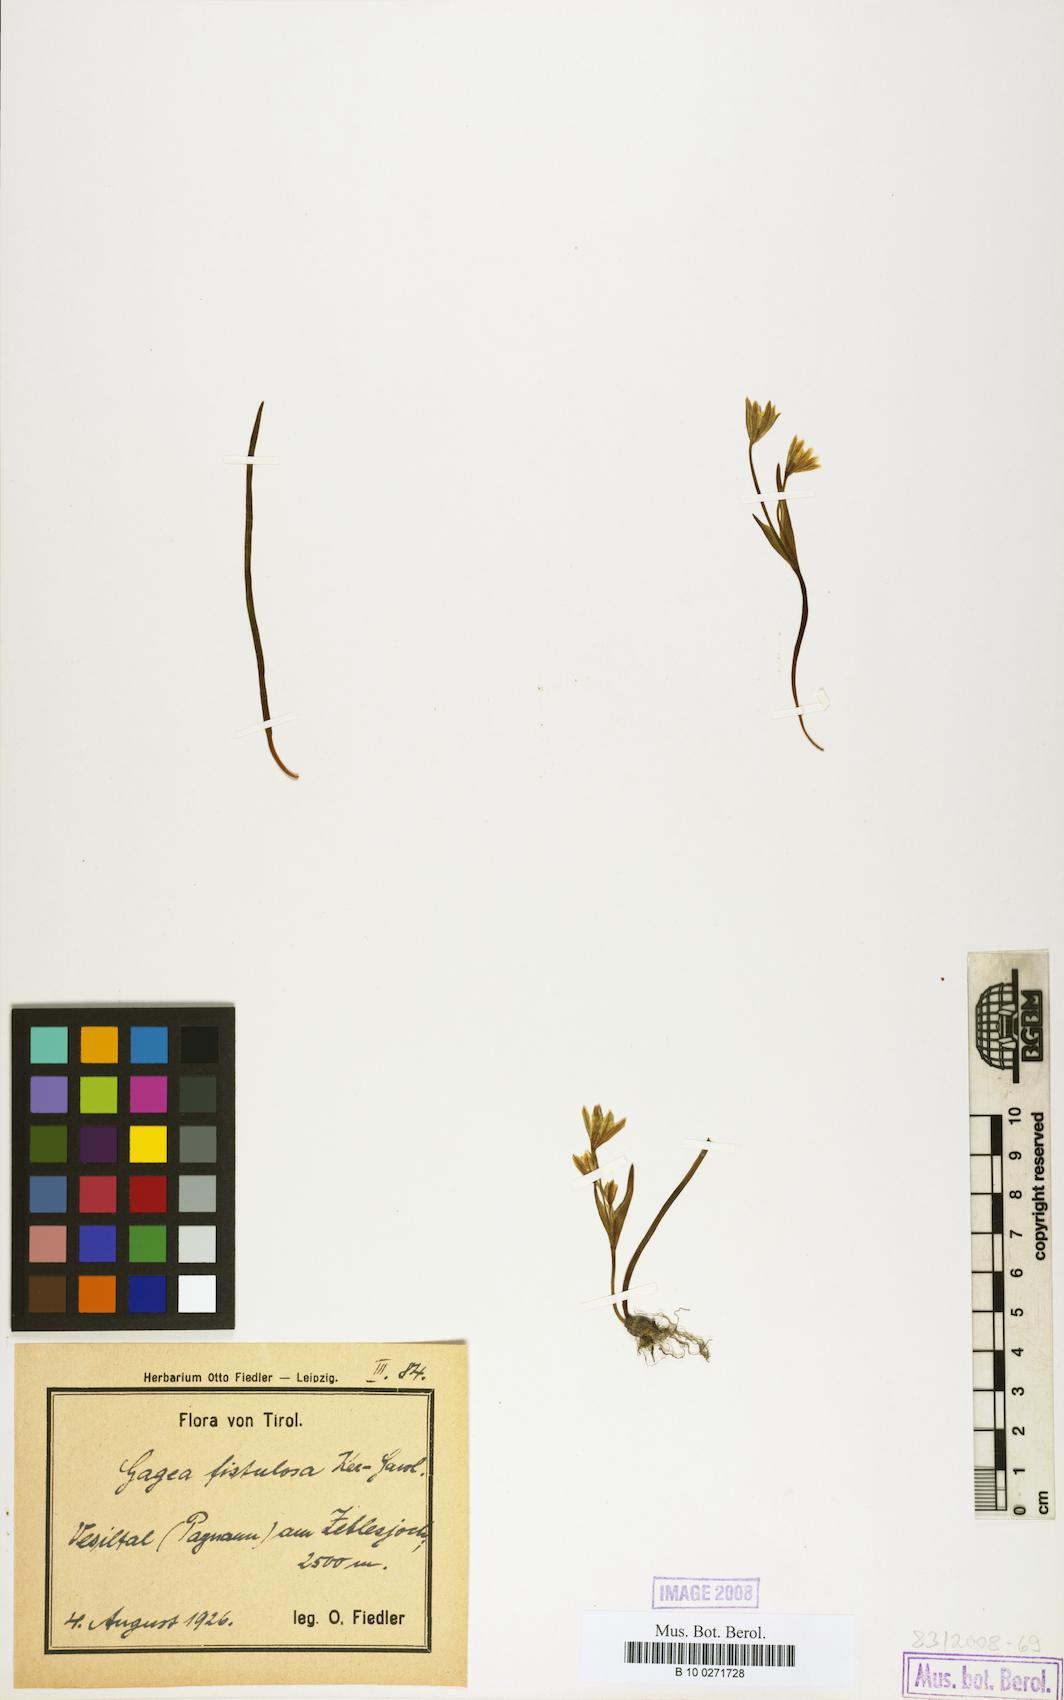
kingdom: Plantae
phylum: Tracheophyta
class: Liliopsida
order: Liliales
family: Liliaceae
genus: Gagea
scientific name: Gagea bohemica
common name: Early star-of-bethlehem
